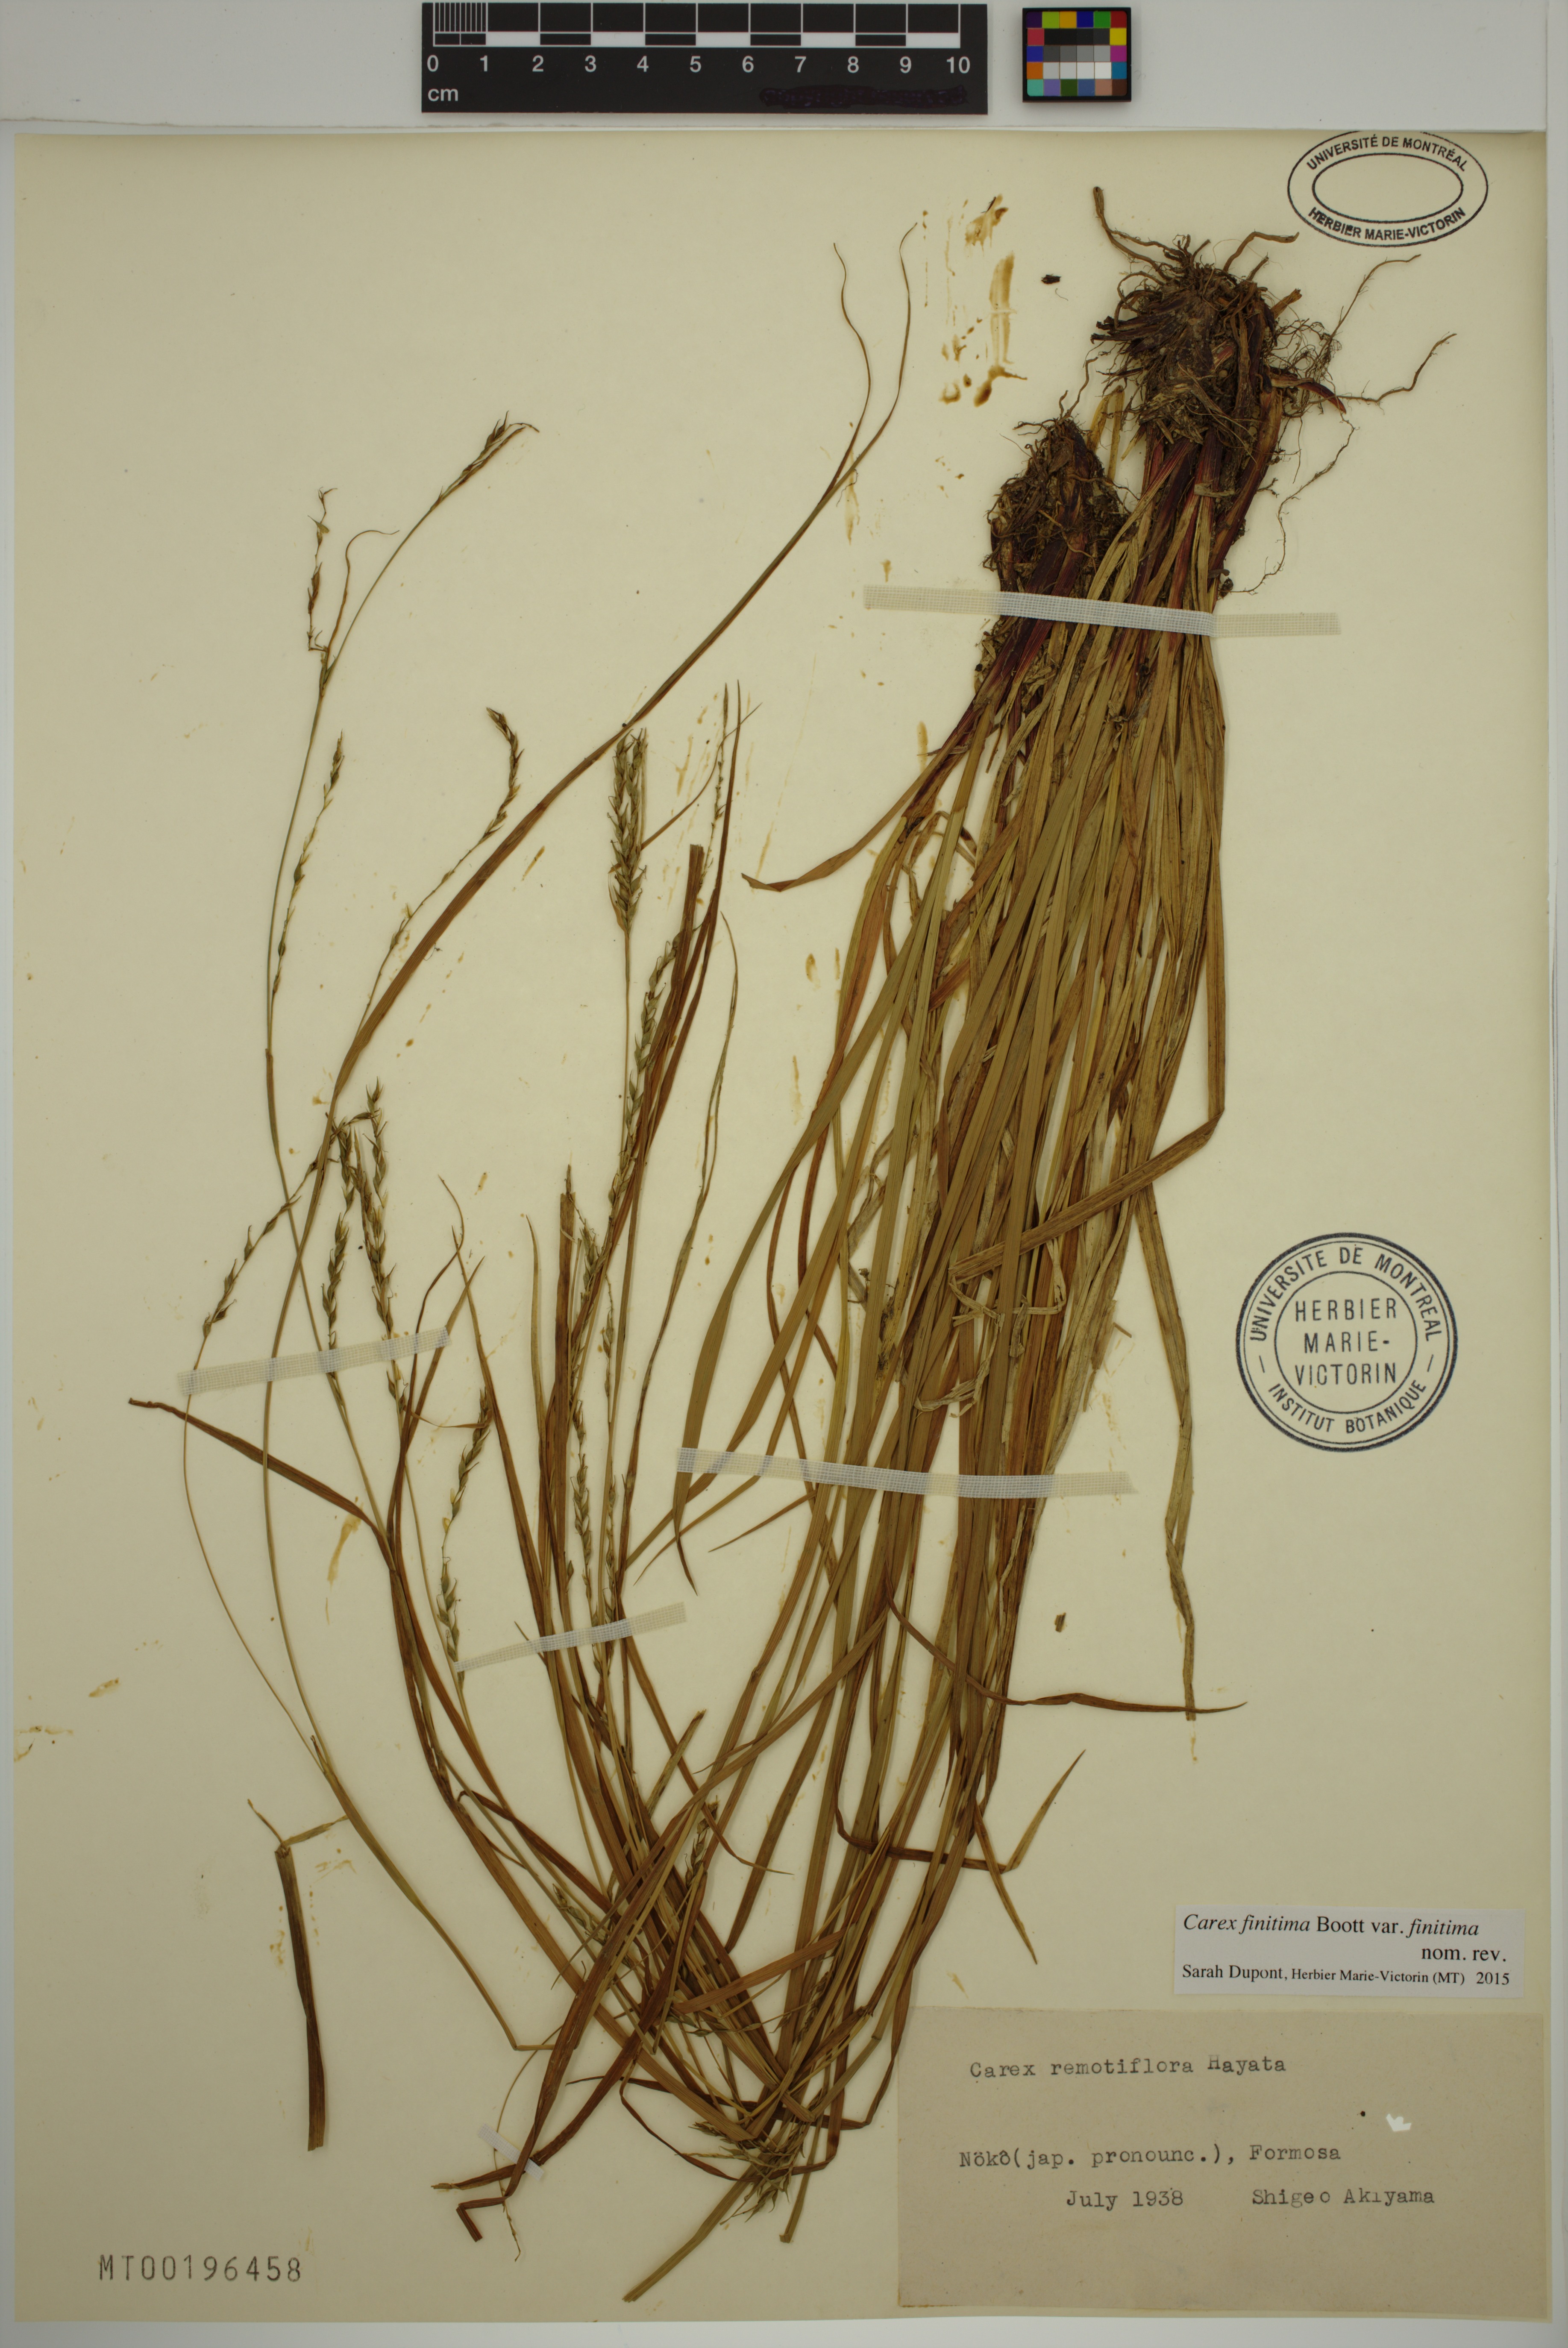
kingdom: Plantae
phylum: Tracheophyta
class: Liliopsida
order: Poales
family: Cyperaceae
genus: Carex
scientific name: Carex finitima
